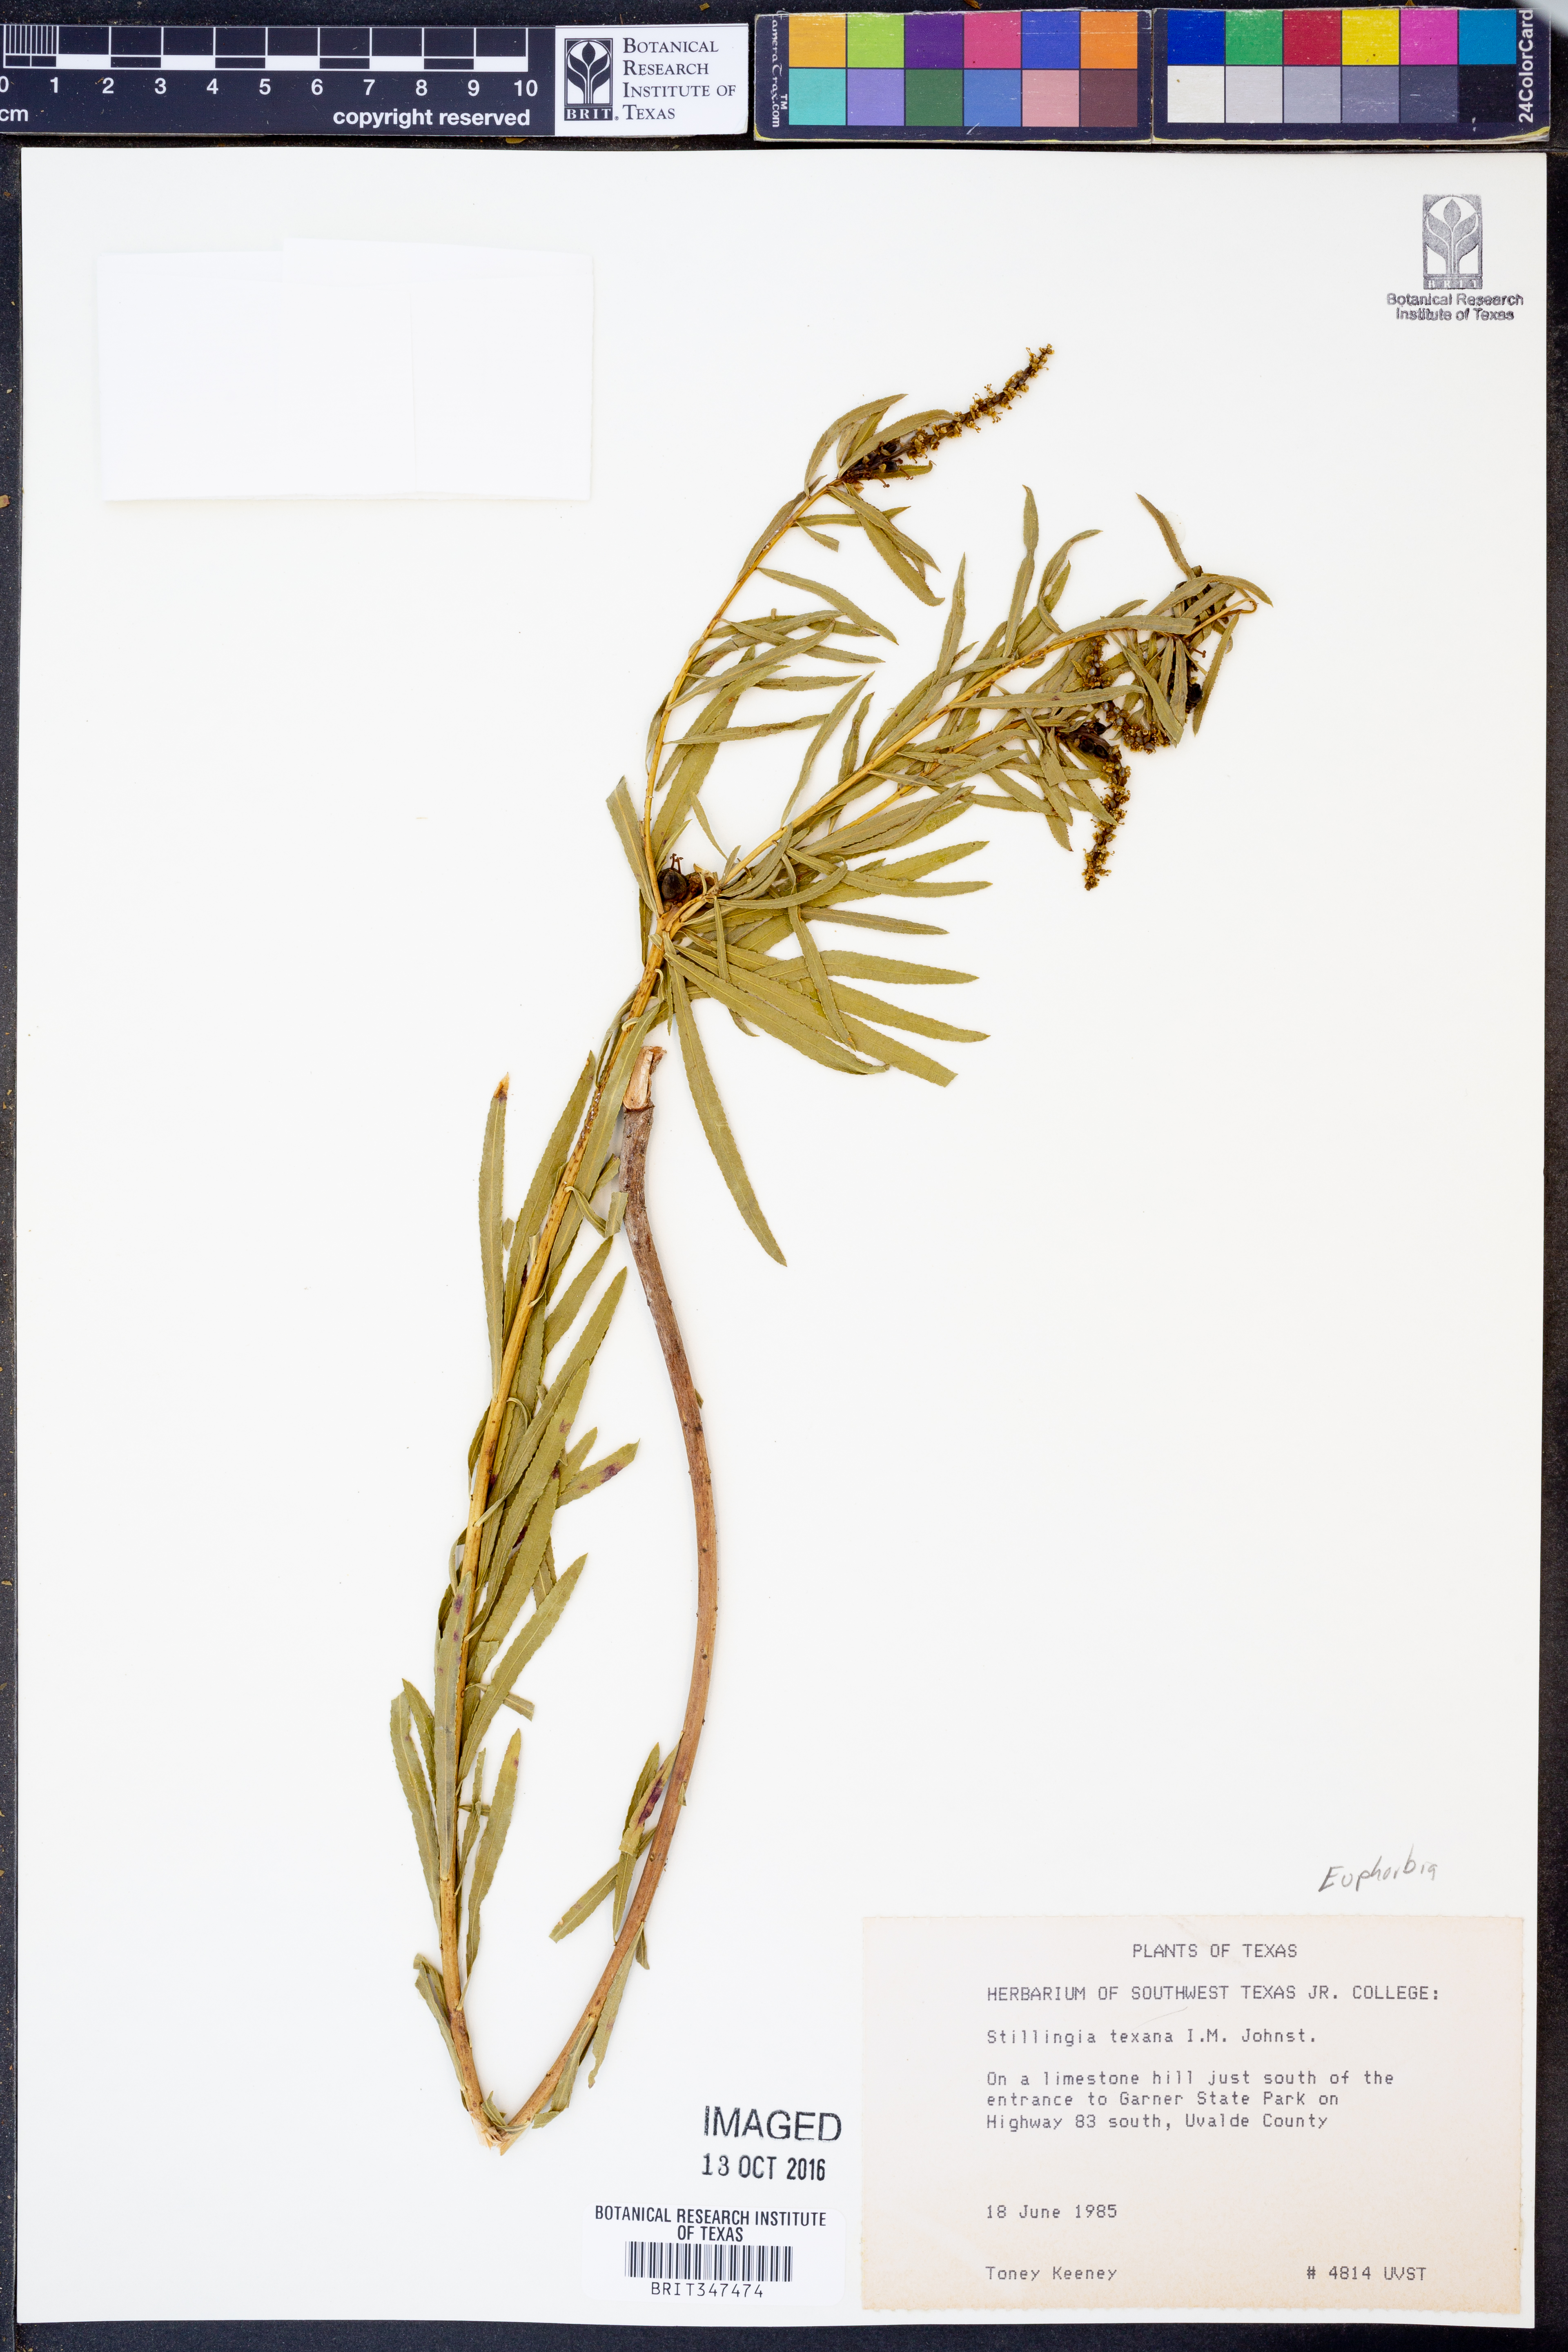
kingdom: Plantae
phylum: Tracheophyta
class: Magnoliopsida
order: Malpighiales
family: Euphorbiaceae
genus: Stillingia
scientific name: Stillingia texana
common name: Texas stillingia
